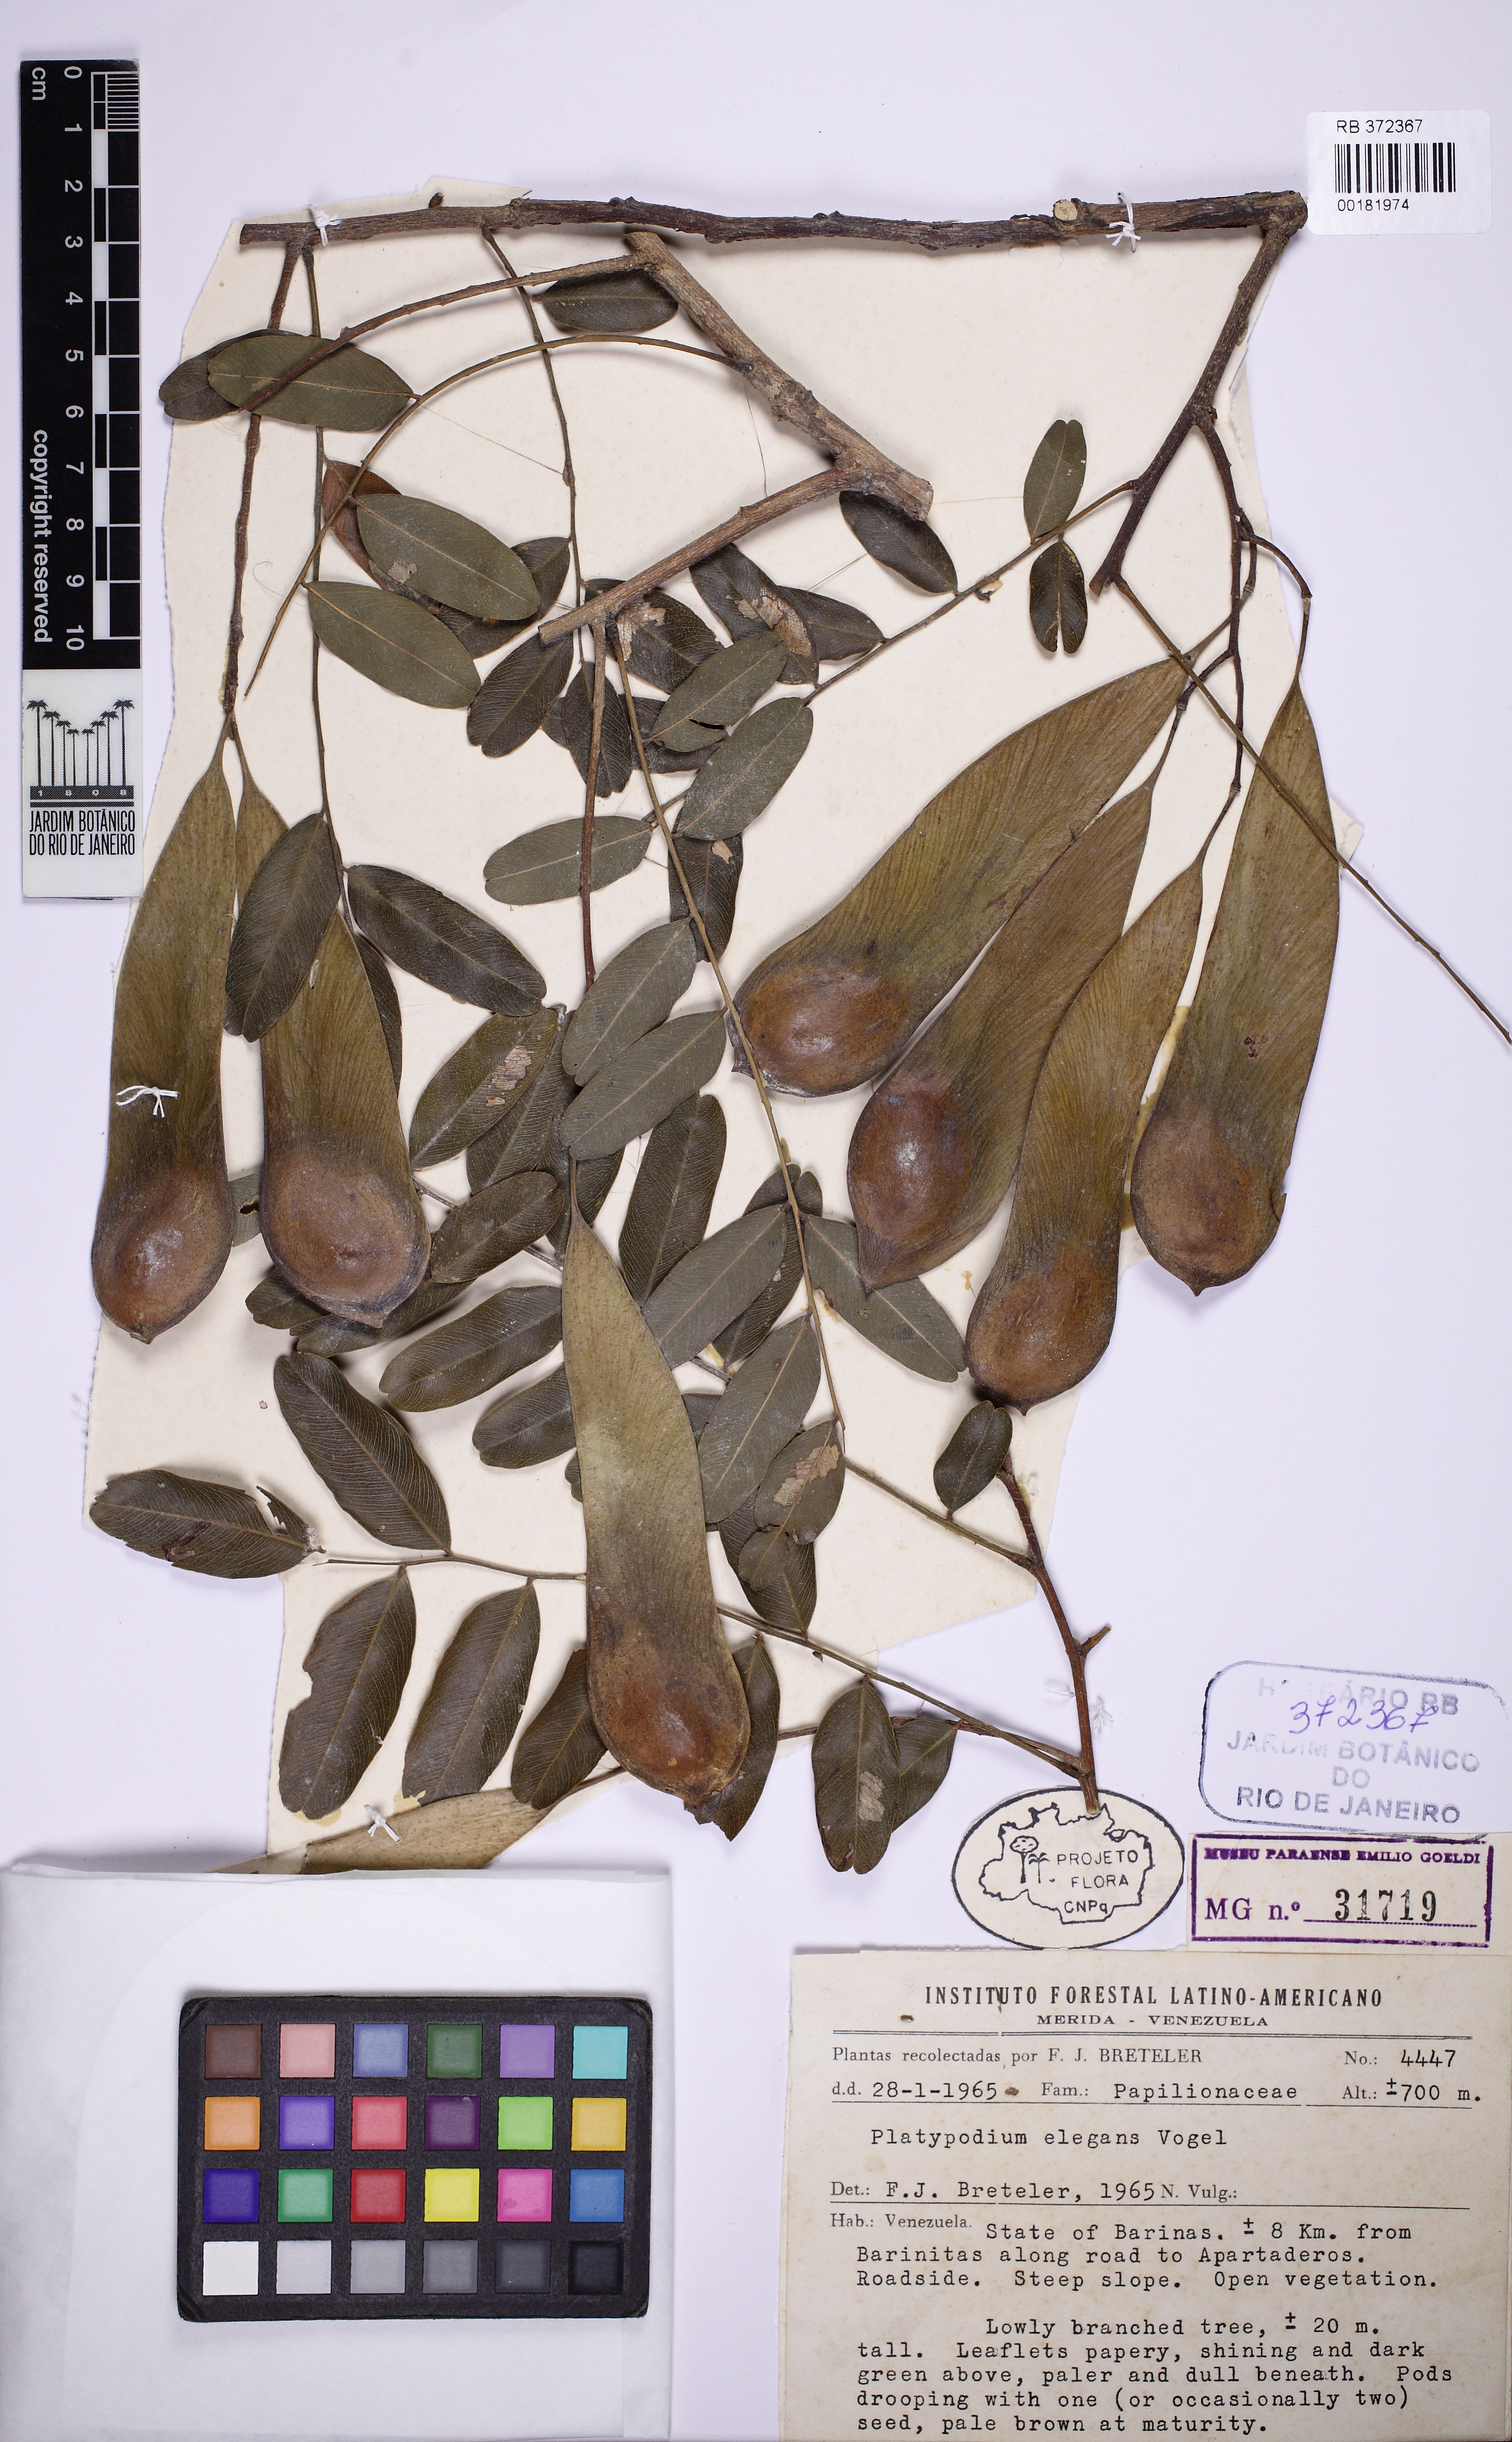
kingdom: Plantae
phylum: Tracheophyta
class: Magnoliopsida
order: Fabales
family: Fabaceae
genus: Platypodium
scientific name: Platypodium elegans
